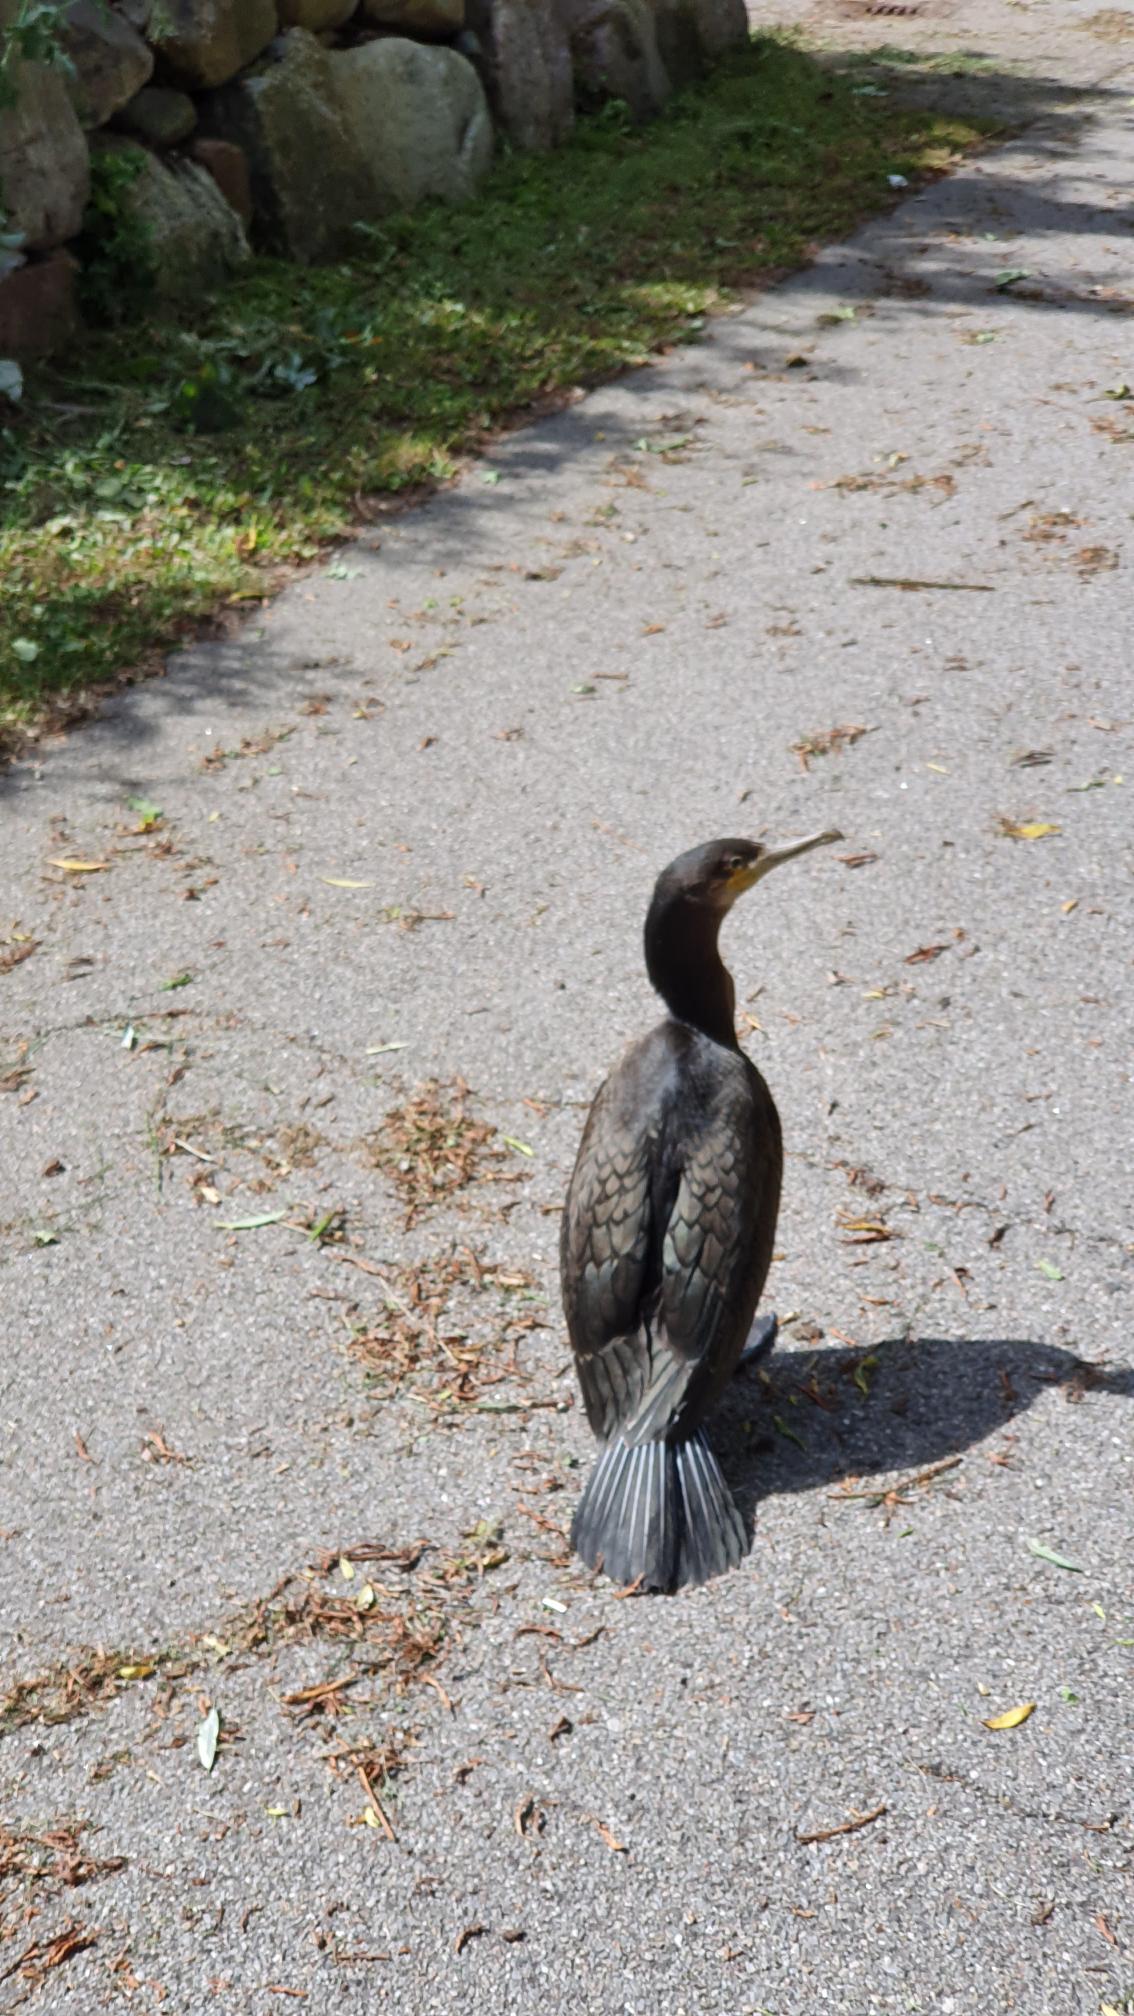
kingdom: Animalia
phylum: Chordata
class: Aves
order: Suliformes
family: Phalacrocoracidae
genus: Phalacrocorax
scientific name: Phalacrocorax carbo
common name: Skarv
